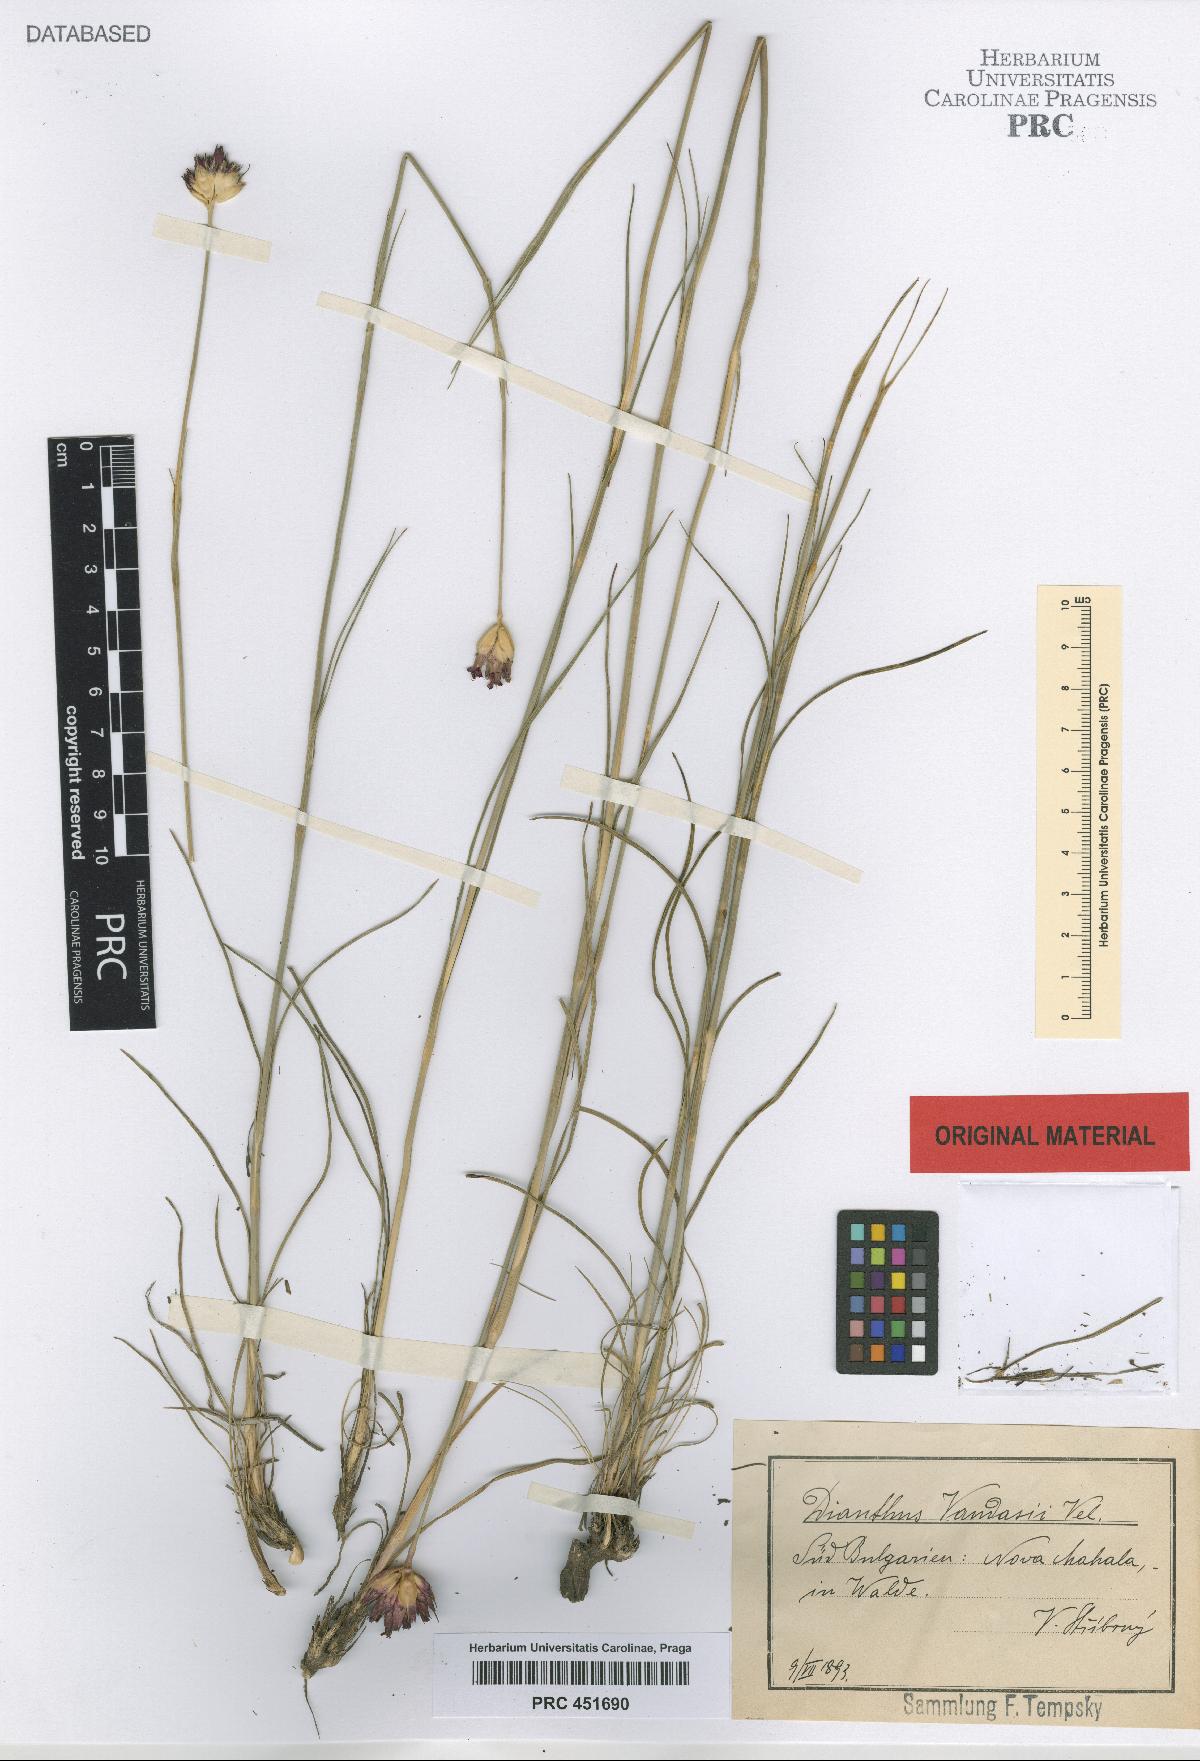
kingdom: Plantae
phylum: Tracheophyta
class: Magnoliopsida
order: Caryophyllales
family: Caryophyllaceae
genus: Dianthus
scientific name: Dianthus giganteus
